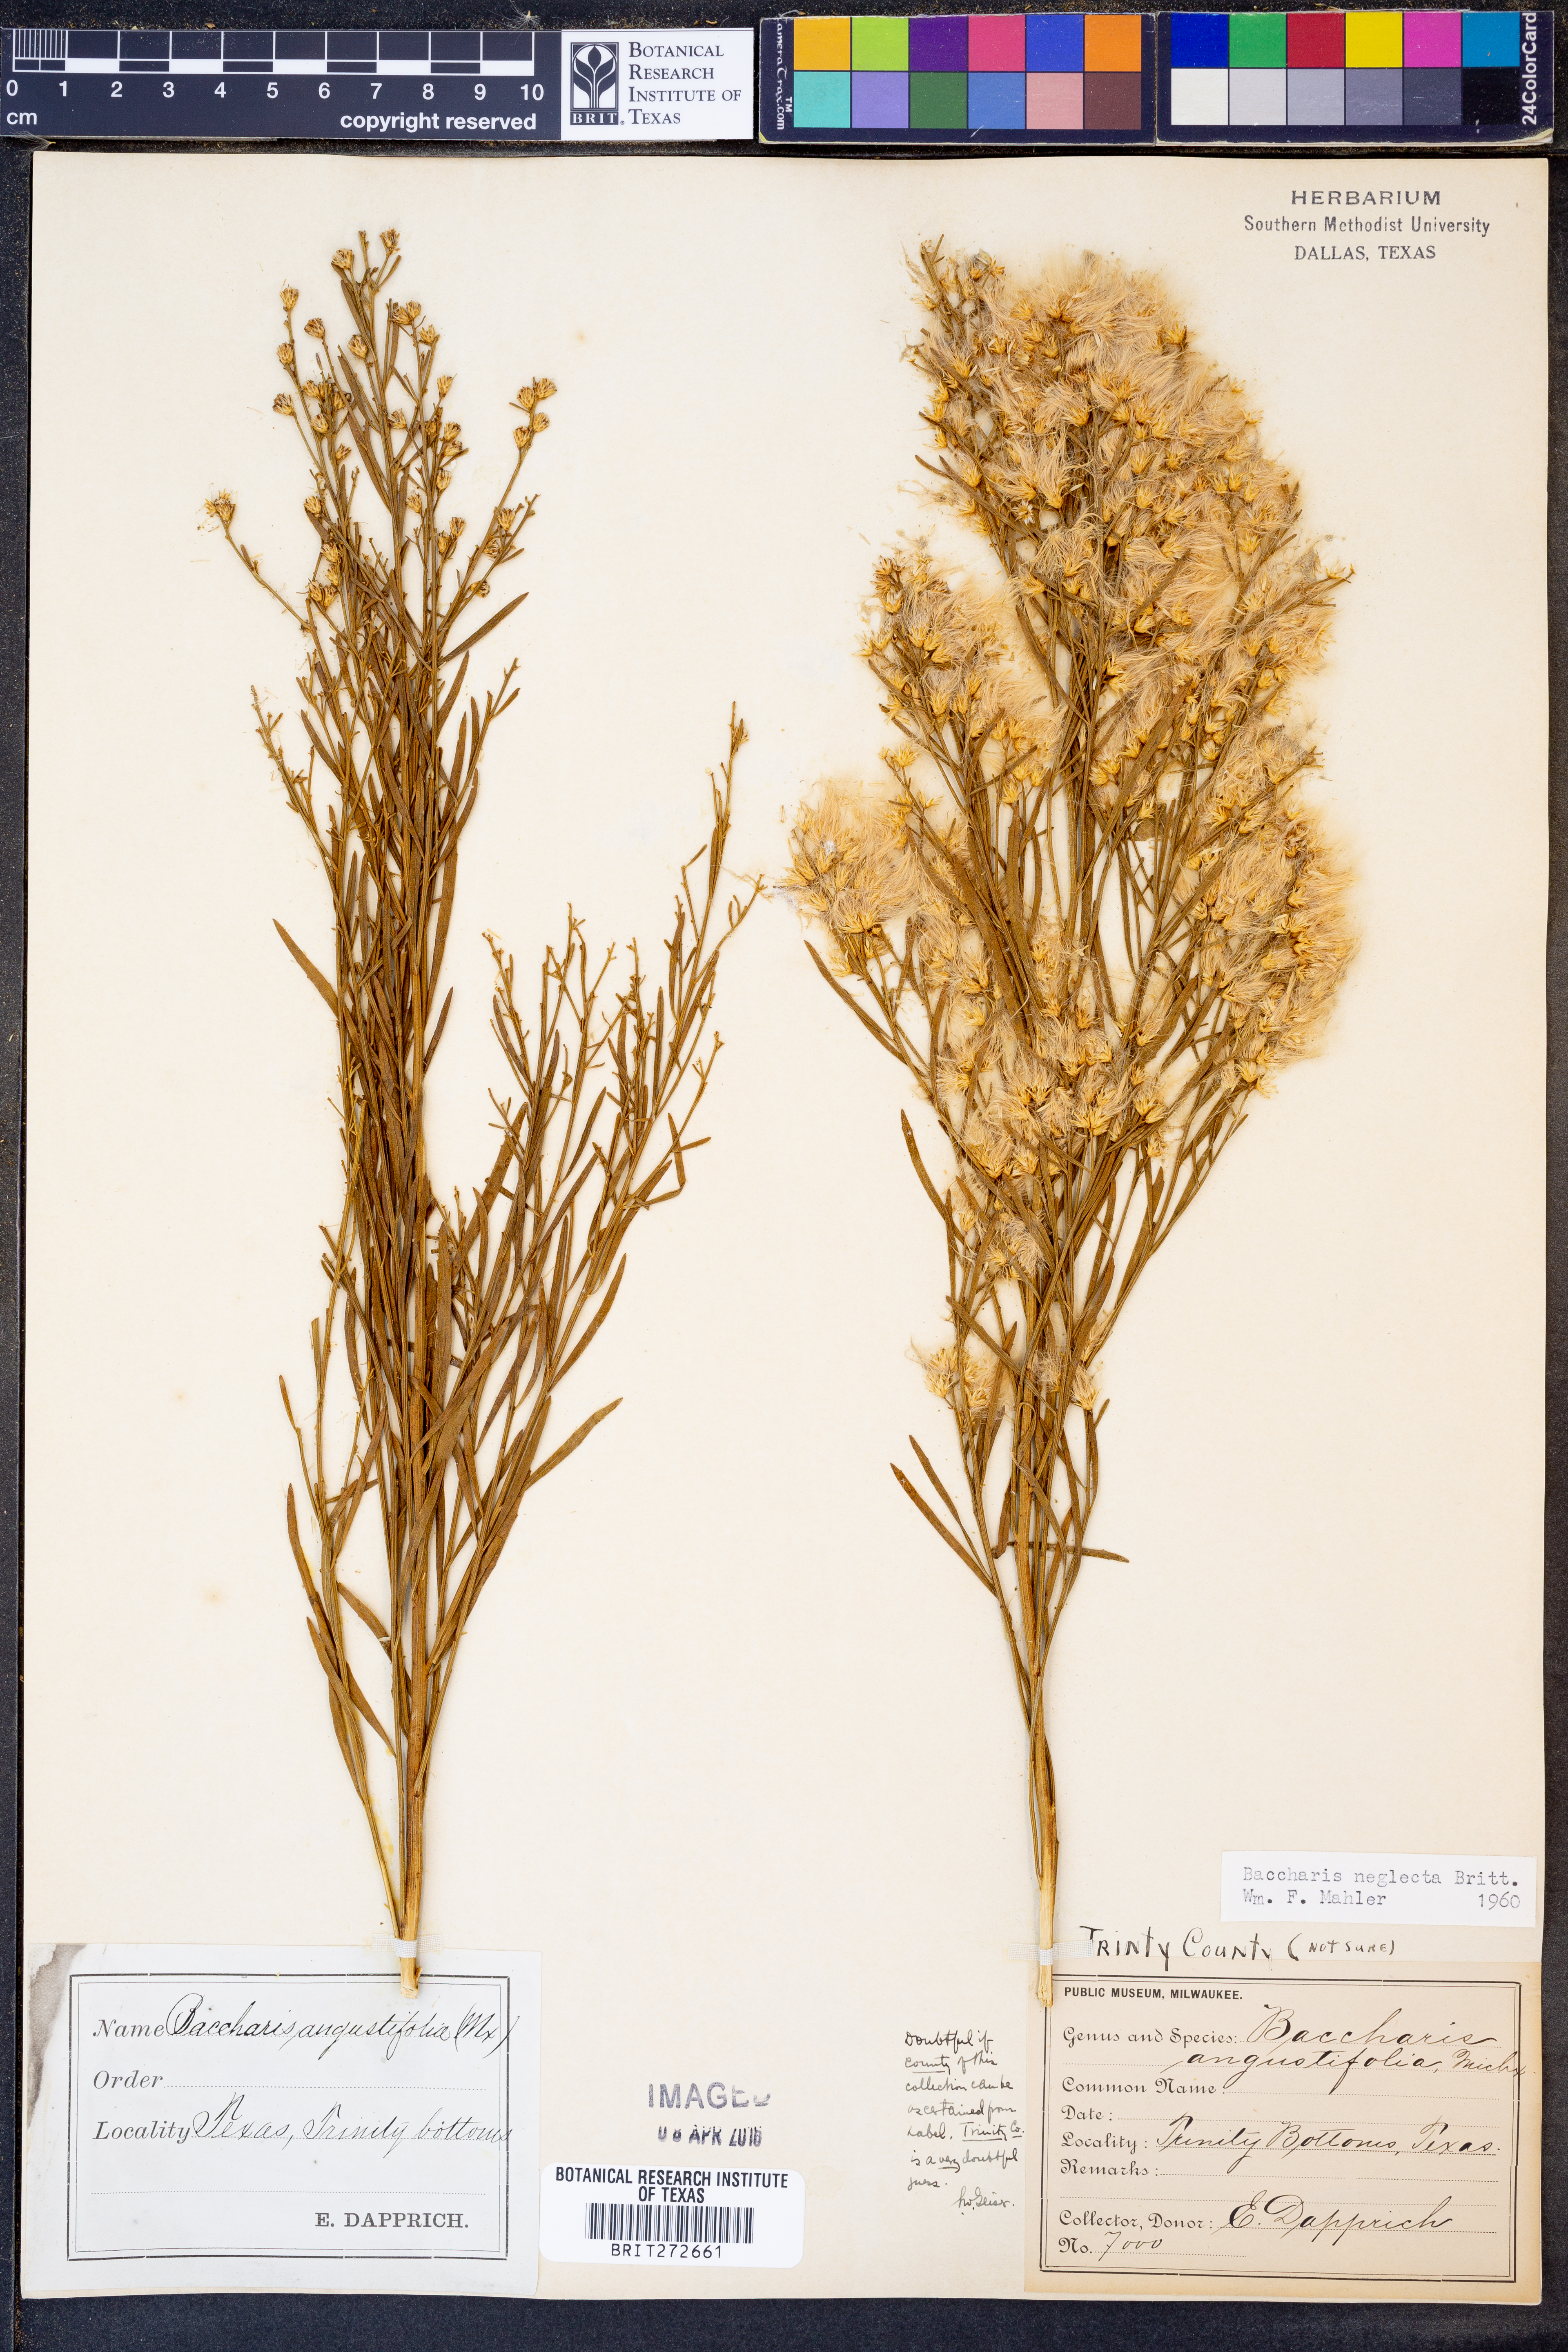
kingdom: Plantae
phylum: Tracheophyta
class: Magnoliopsida
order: Asterales
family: Asteraceae
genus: Baccharis
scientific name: Baccharis neglecta
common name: Roosevelt-weed
